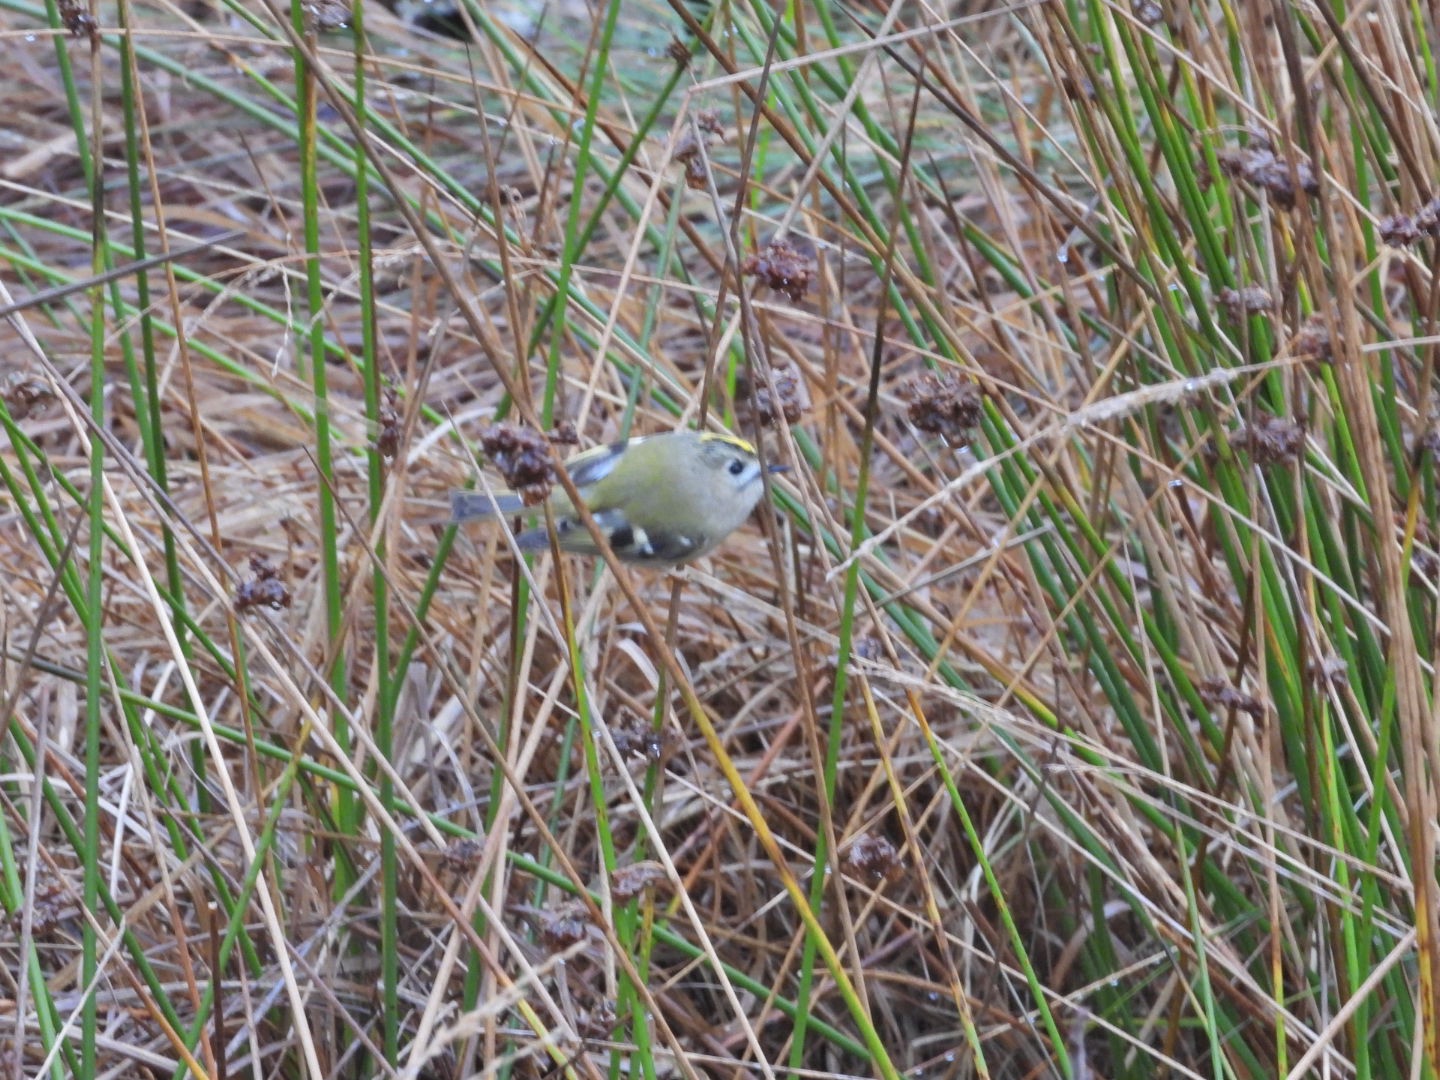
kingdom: Animalia
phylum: Chordata
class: Aves
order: Passeriformes
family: Regulidae
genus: Regulus
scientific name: Regulus regulus
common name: Fuglekonge
